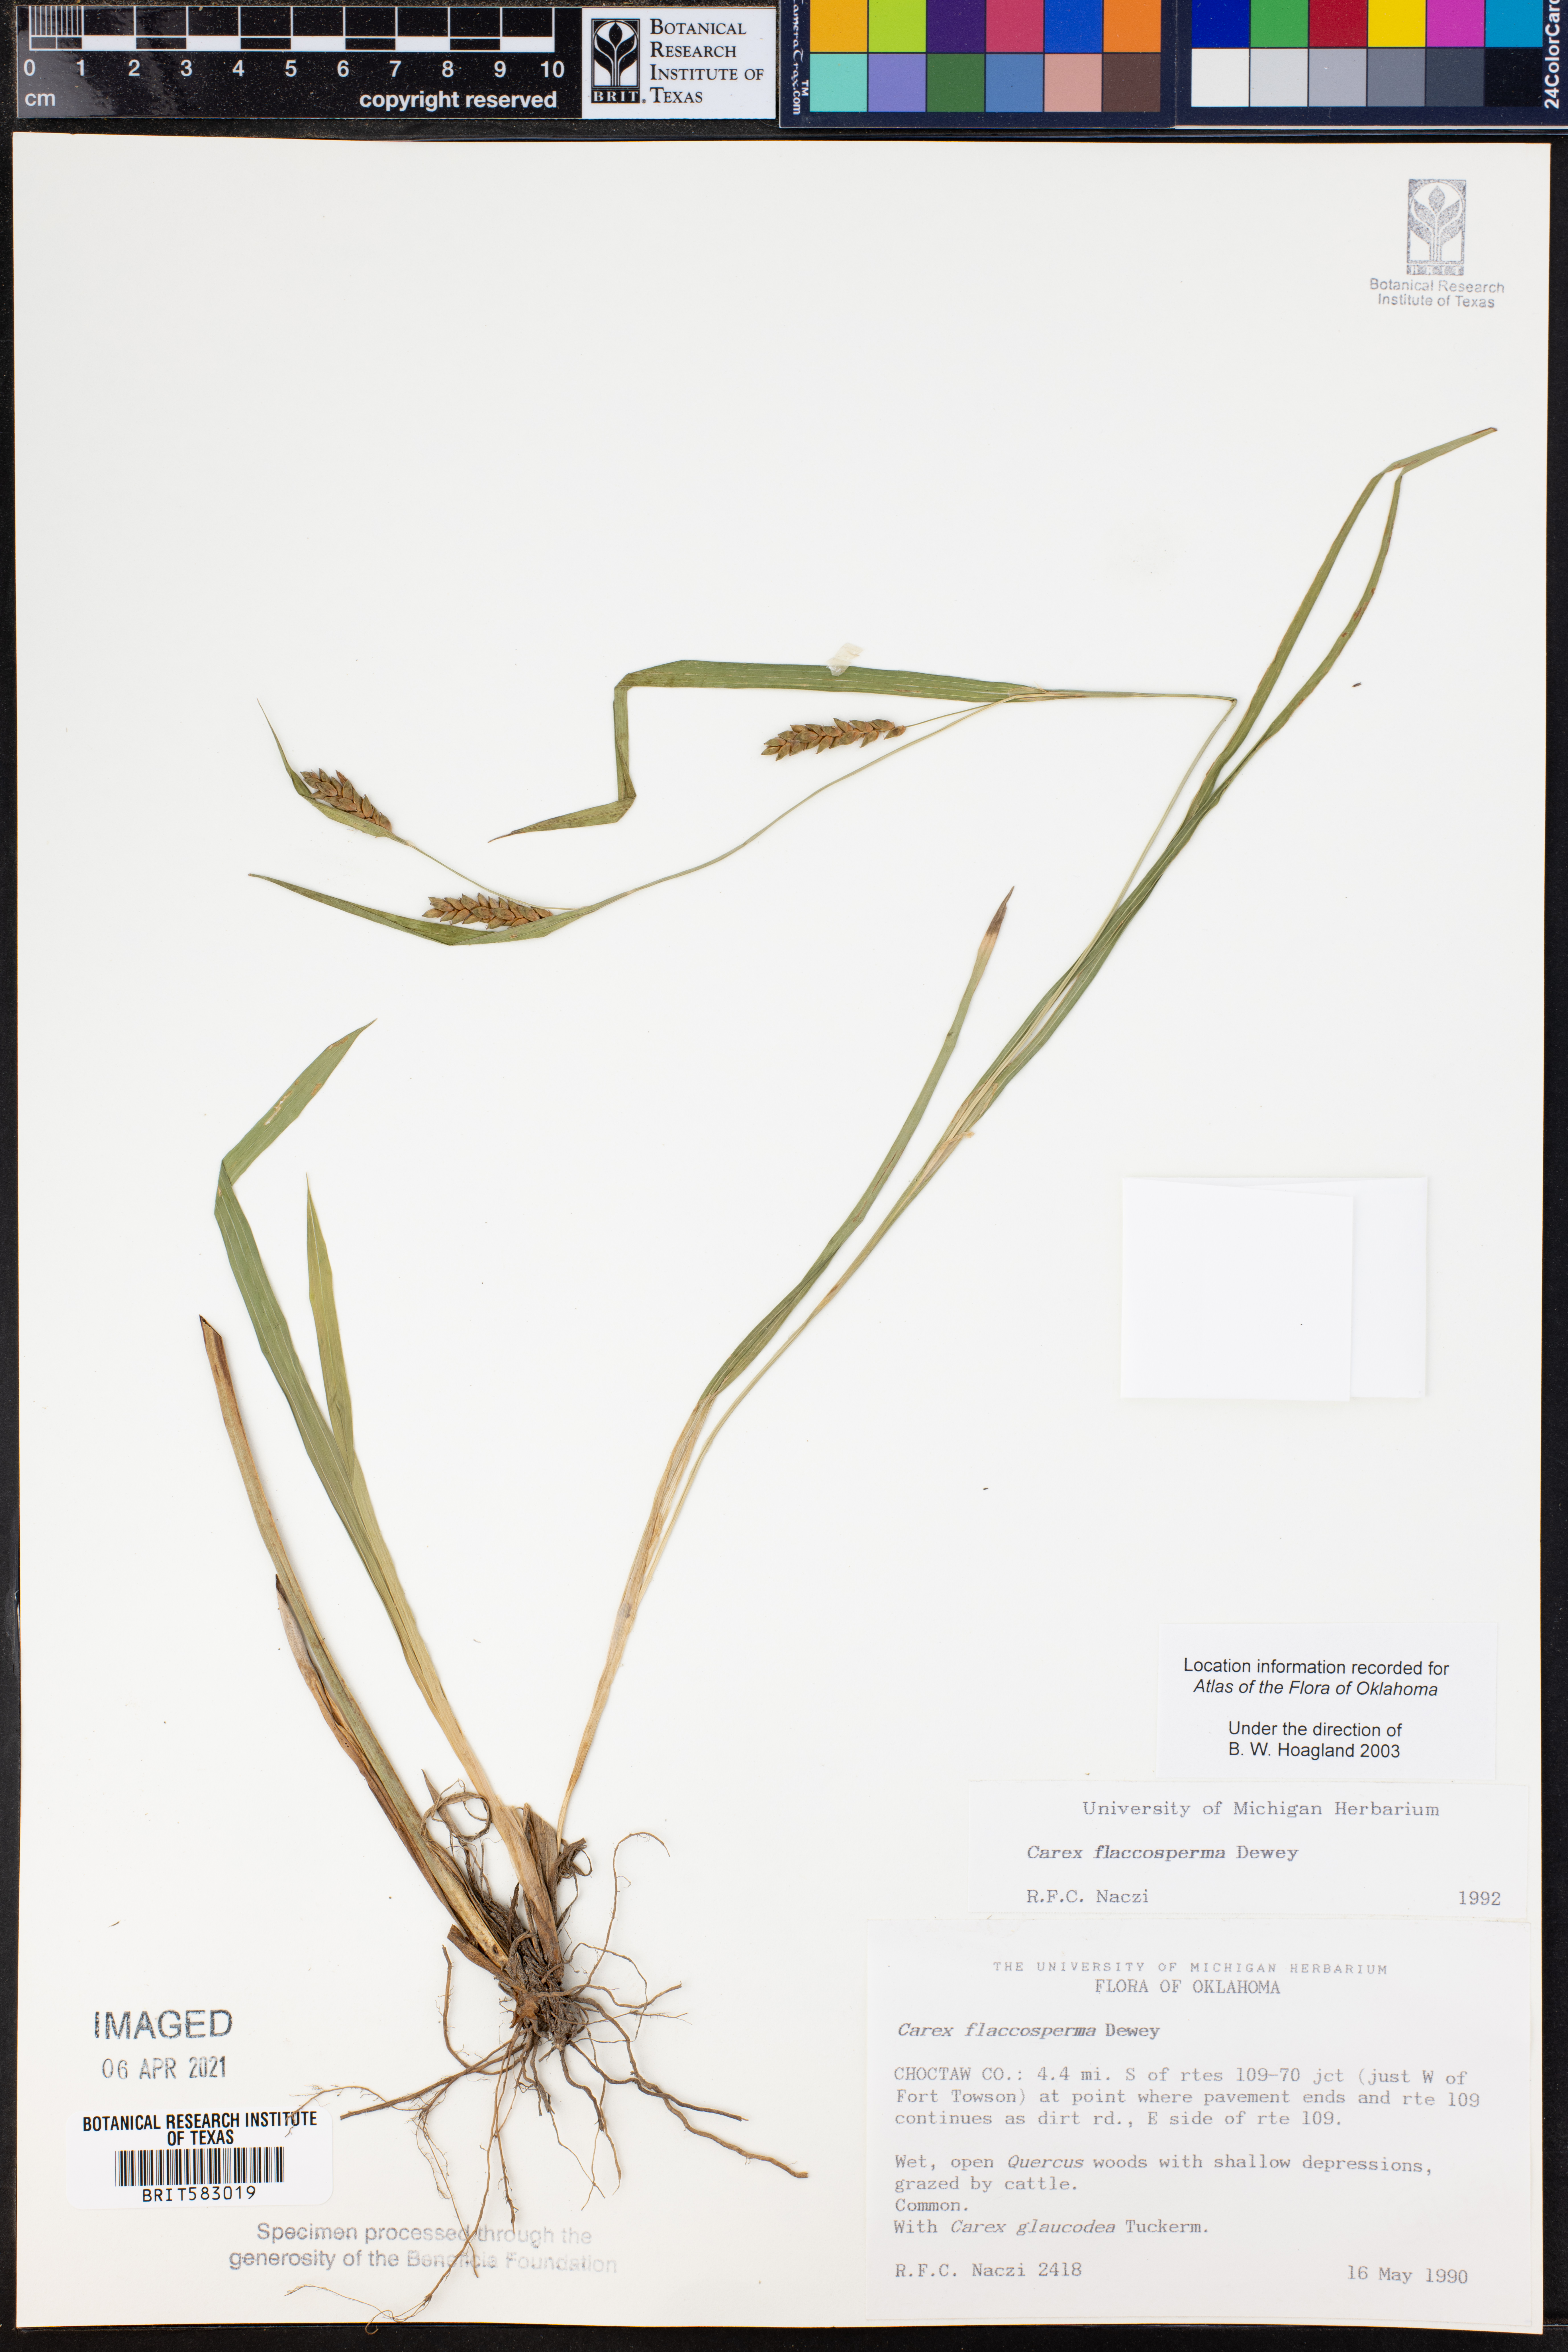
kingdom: Plantae
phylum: Tracheophyta
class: Liliopsida
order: Poales
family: Cyperaceae
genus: Carex
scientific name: Carex flaccosperma
